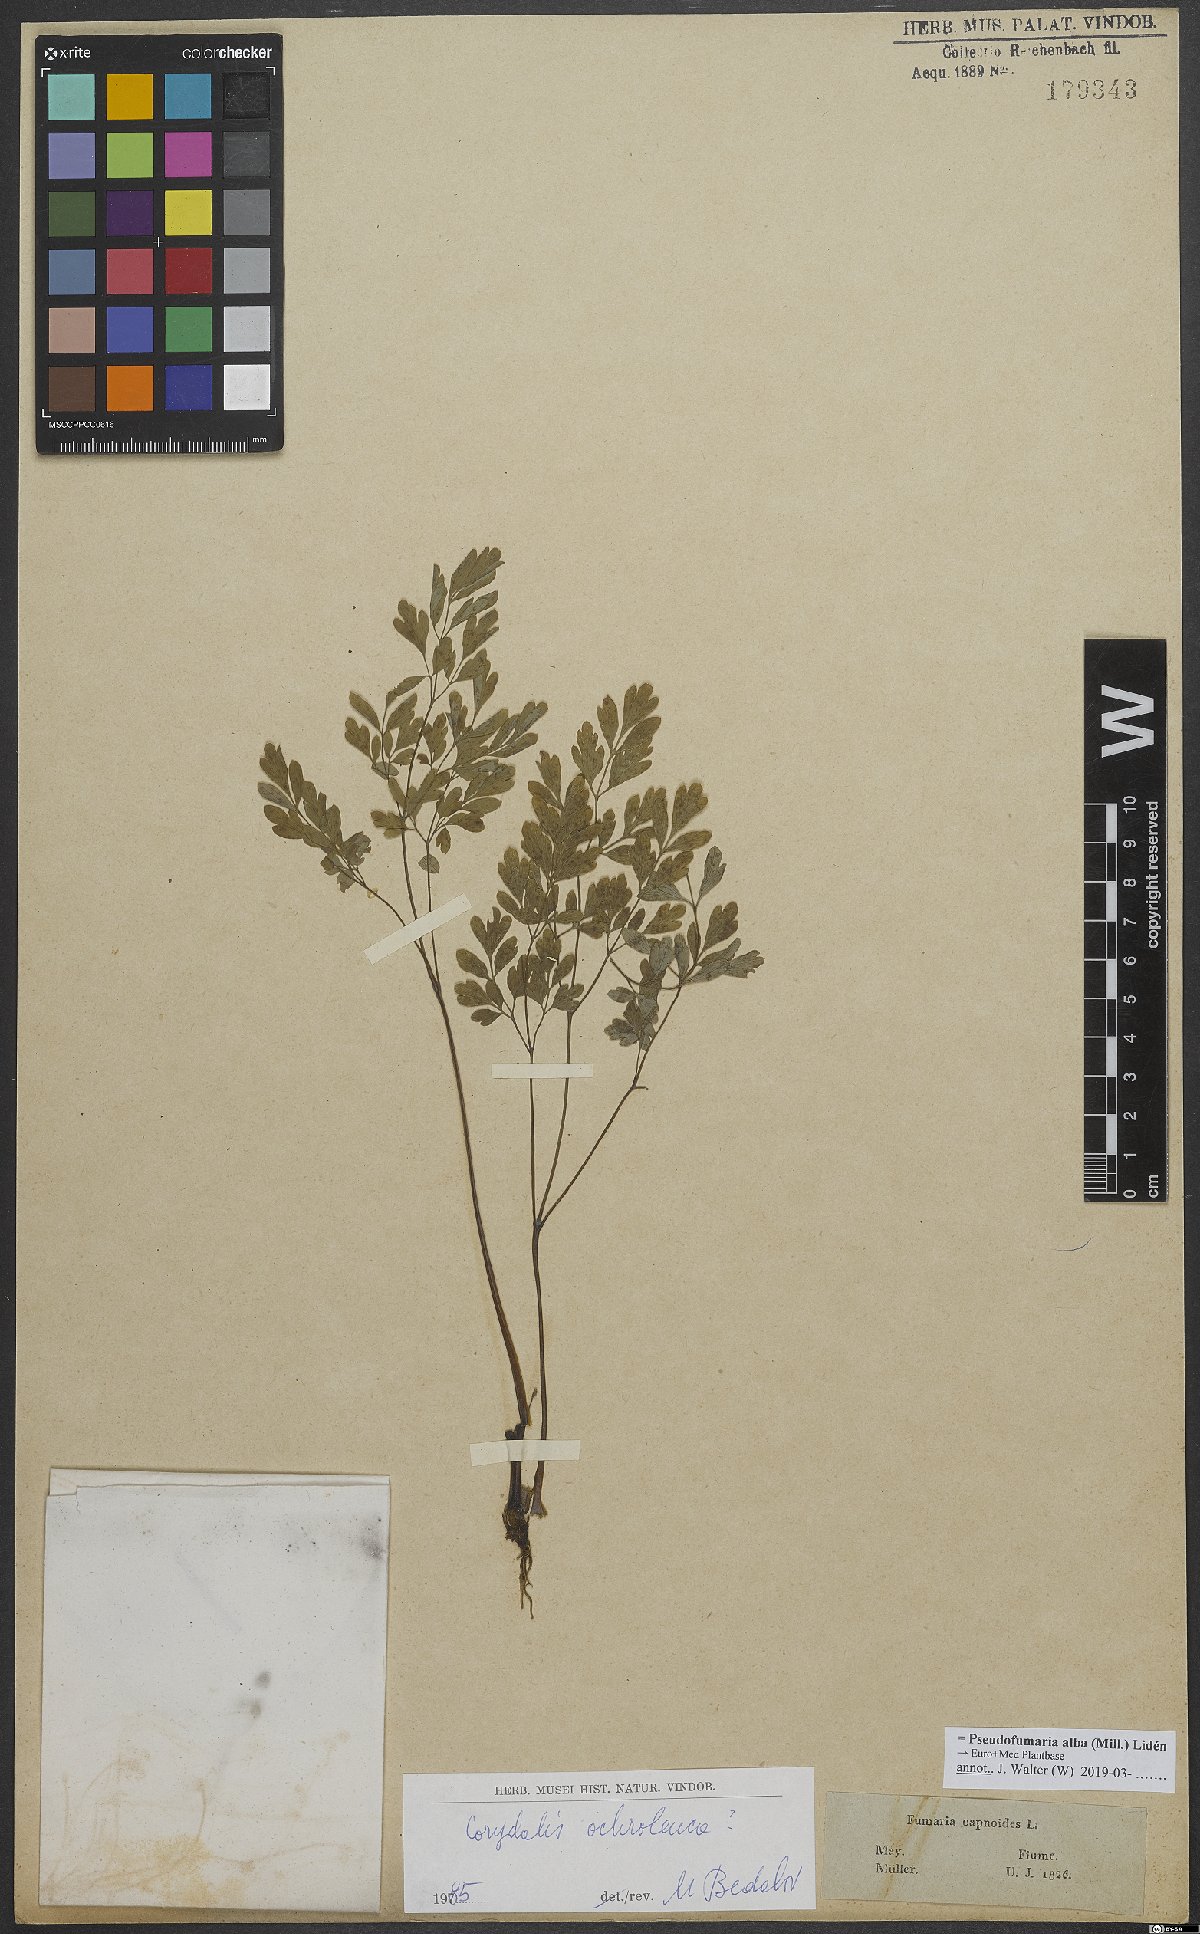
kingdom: Plantae
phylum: Tracheophyta
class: Magnoliopsida
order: Ranunculales
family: Papaveraceae
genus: Pseudofumaria
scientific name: Pseudofumaria alba
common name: Pale corydalis
